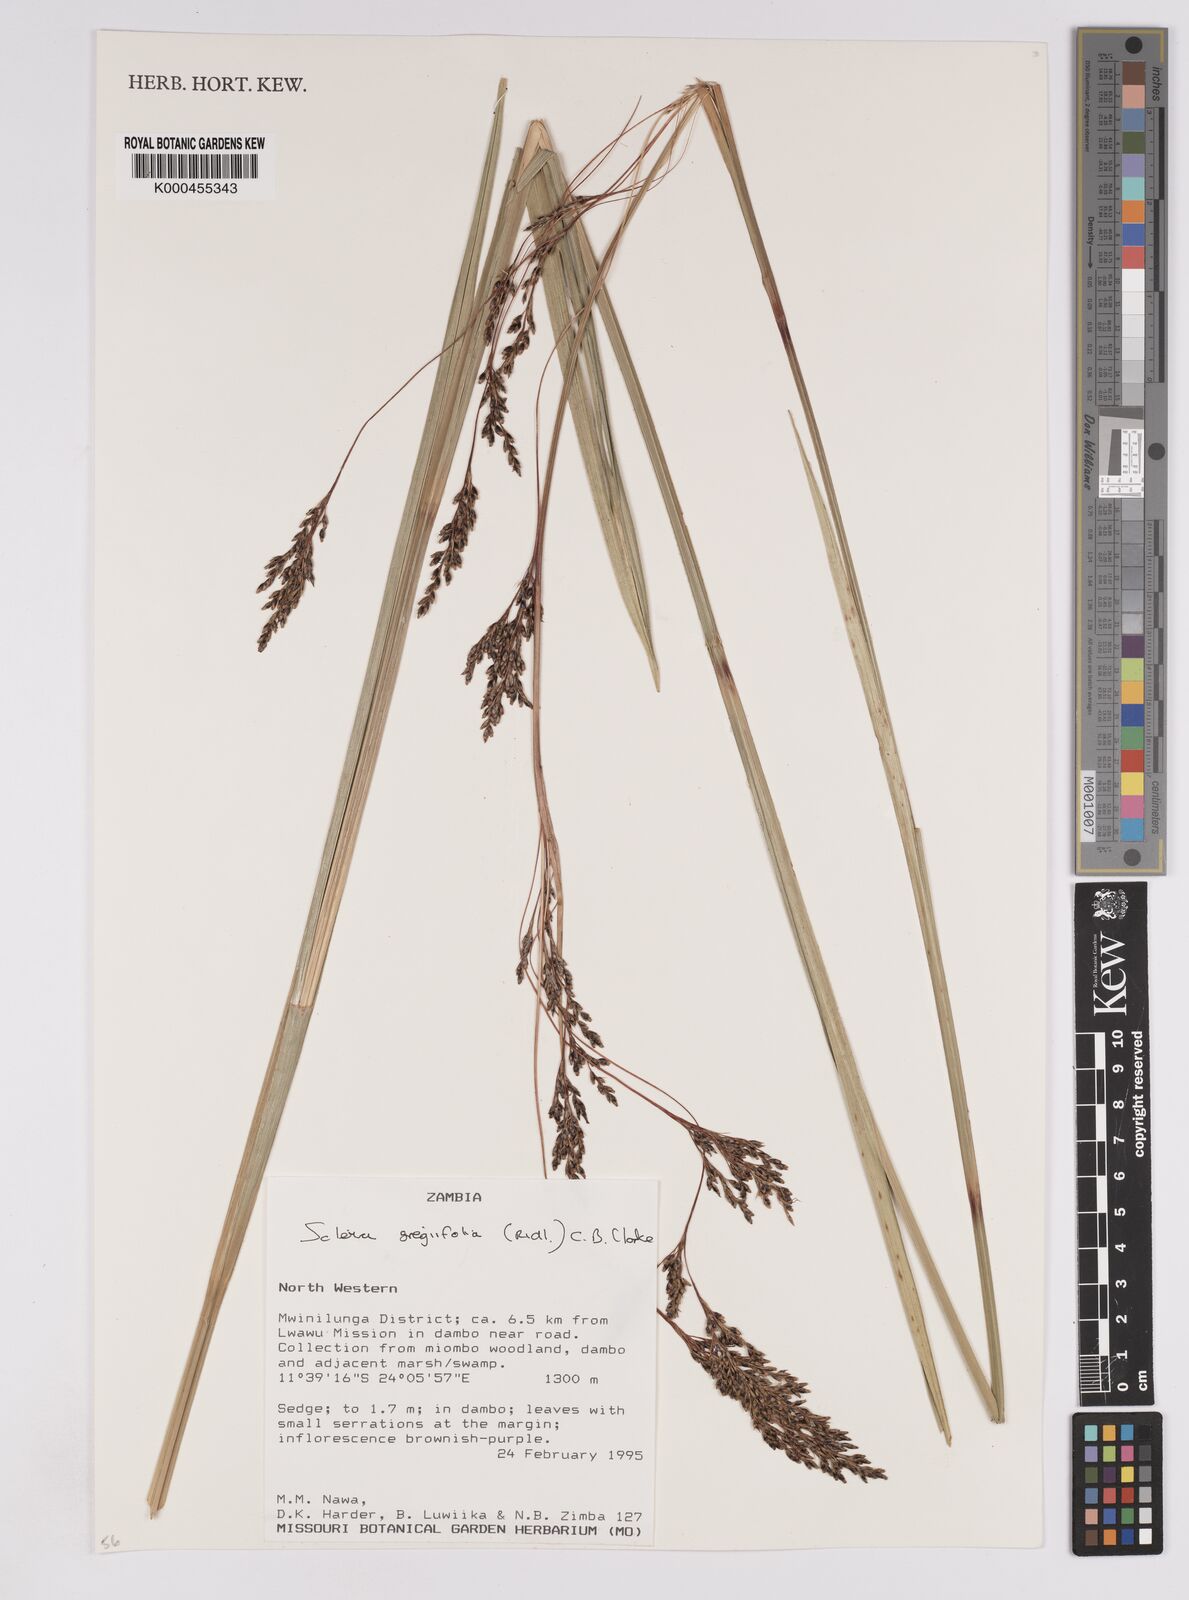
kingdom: Plantae
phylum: Tracheophyta
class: Liliopsida
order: Poales
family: Cyperaceae
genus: Scleria
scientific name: Scleria greigiifolia
